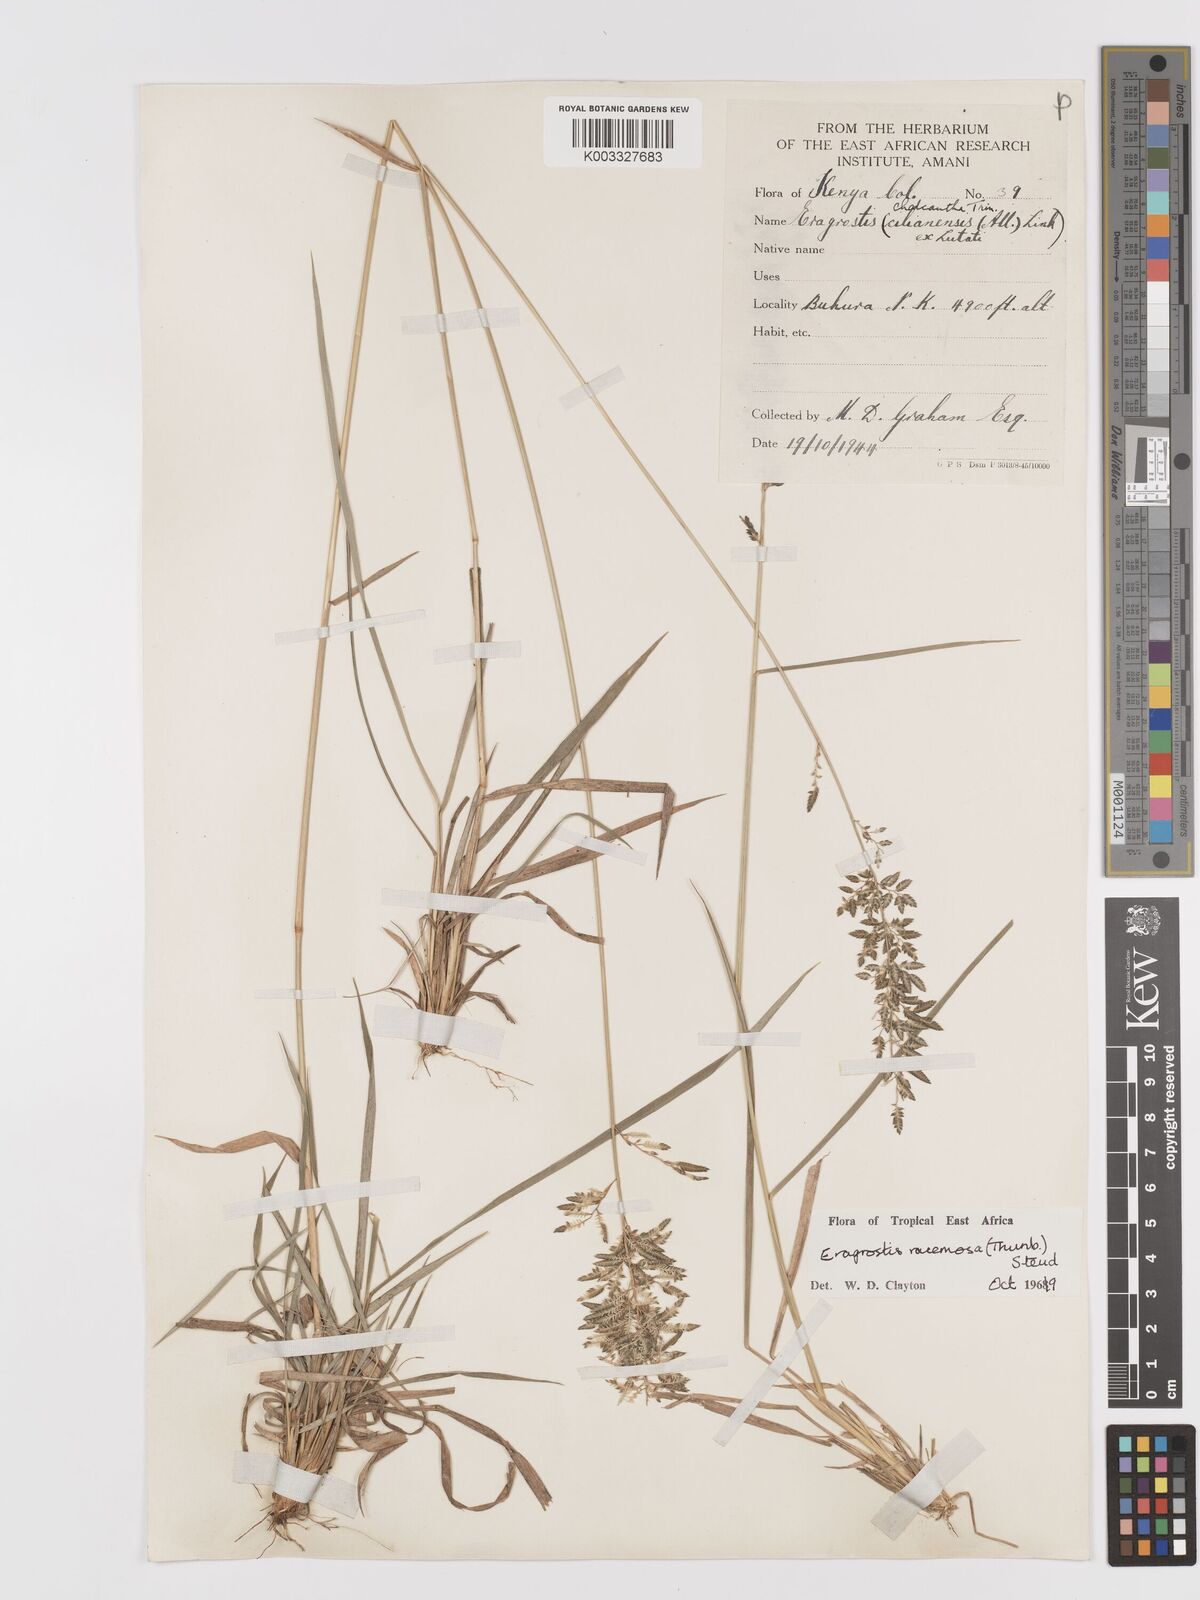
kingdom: Plantae
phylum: Tracheophyta
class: Liliopsida
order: Poales
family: Poaceae
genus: Eragrostis
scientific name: Eragrostis racemosa
